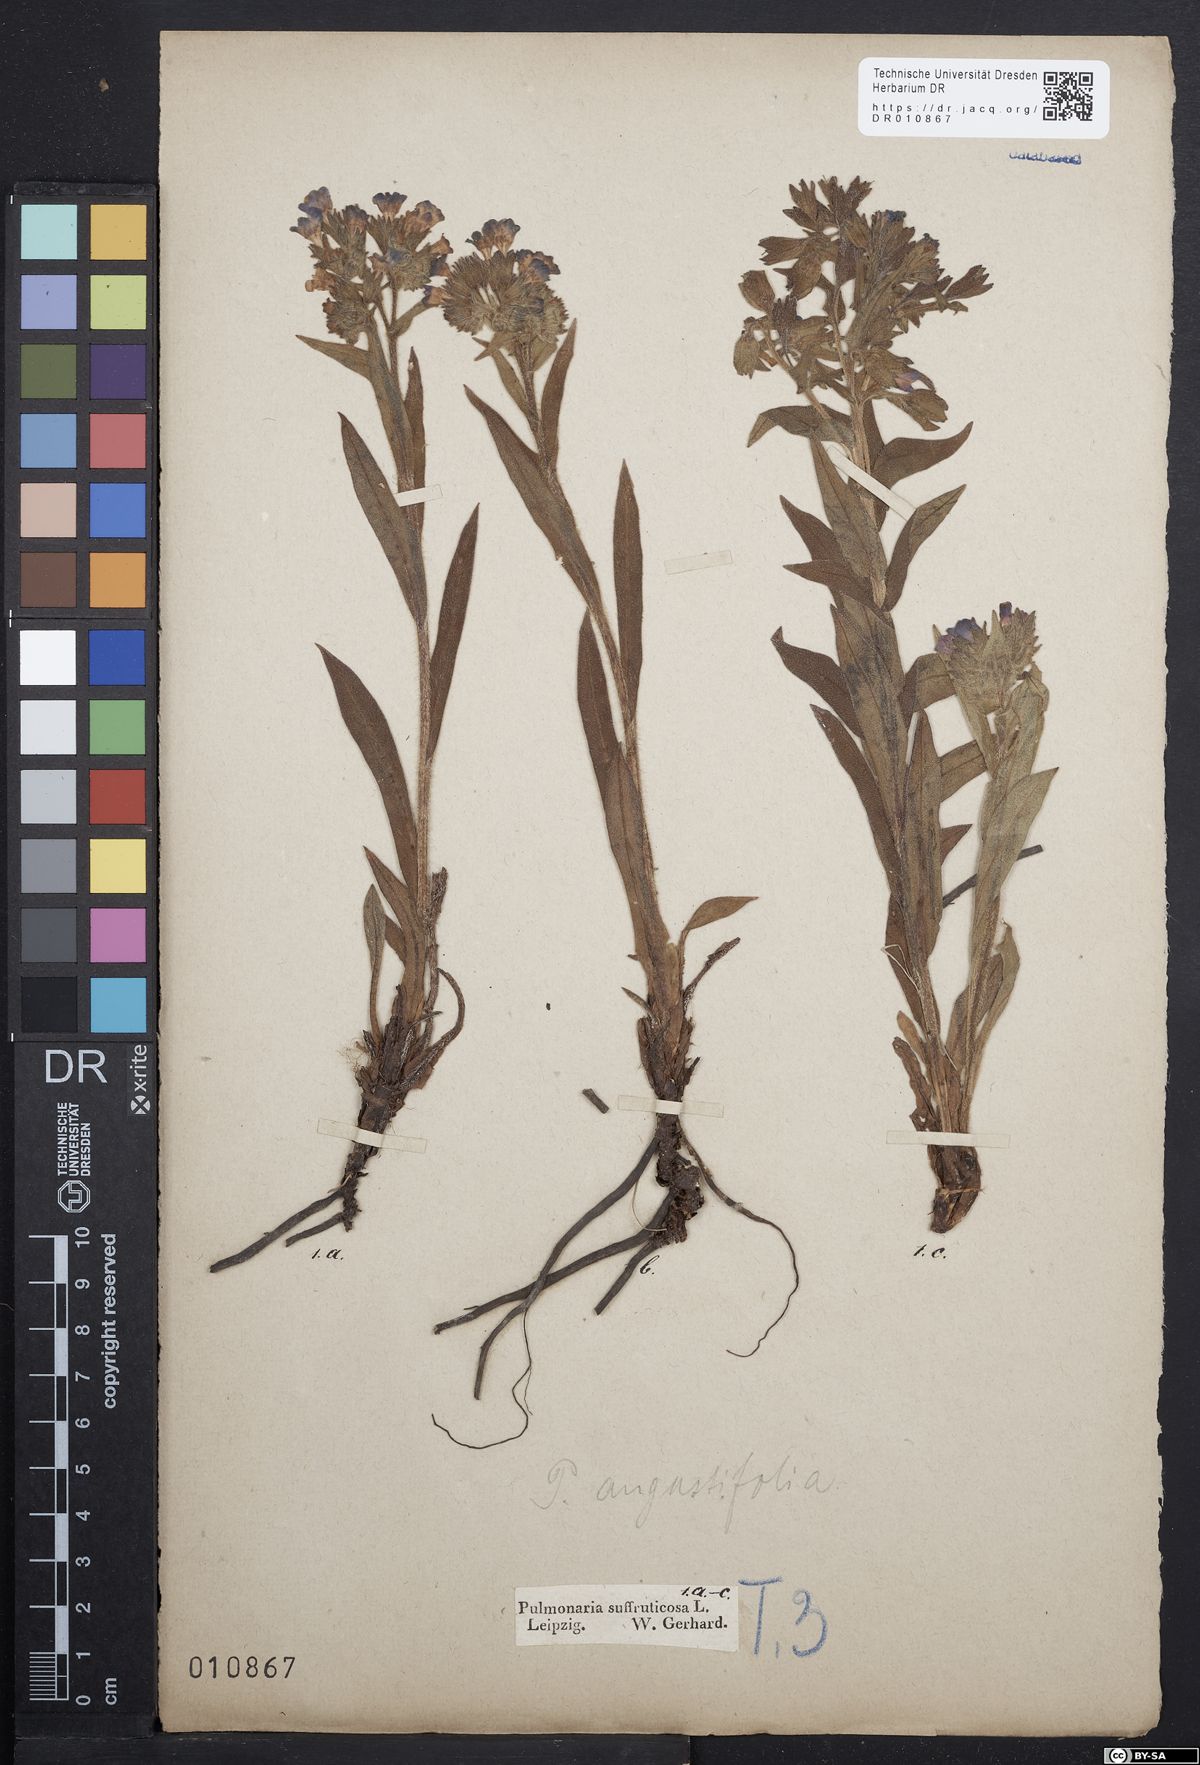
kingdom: Plantae
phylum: Tracheophyta
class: Magnoliopsida
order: Boraginales
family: Boraginaceae
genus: Pulmonaria
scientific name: Pulmonaria angustifolia
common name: Blue cowslip
